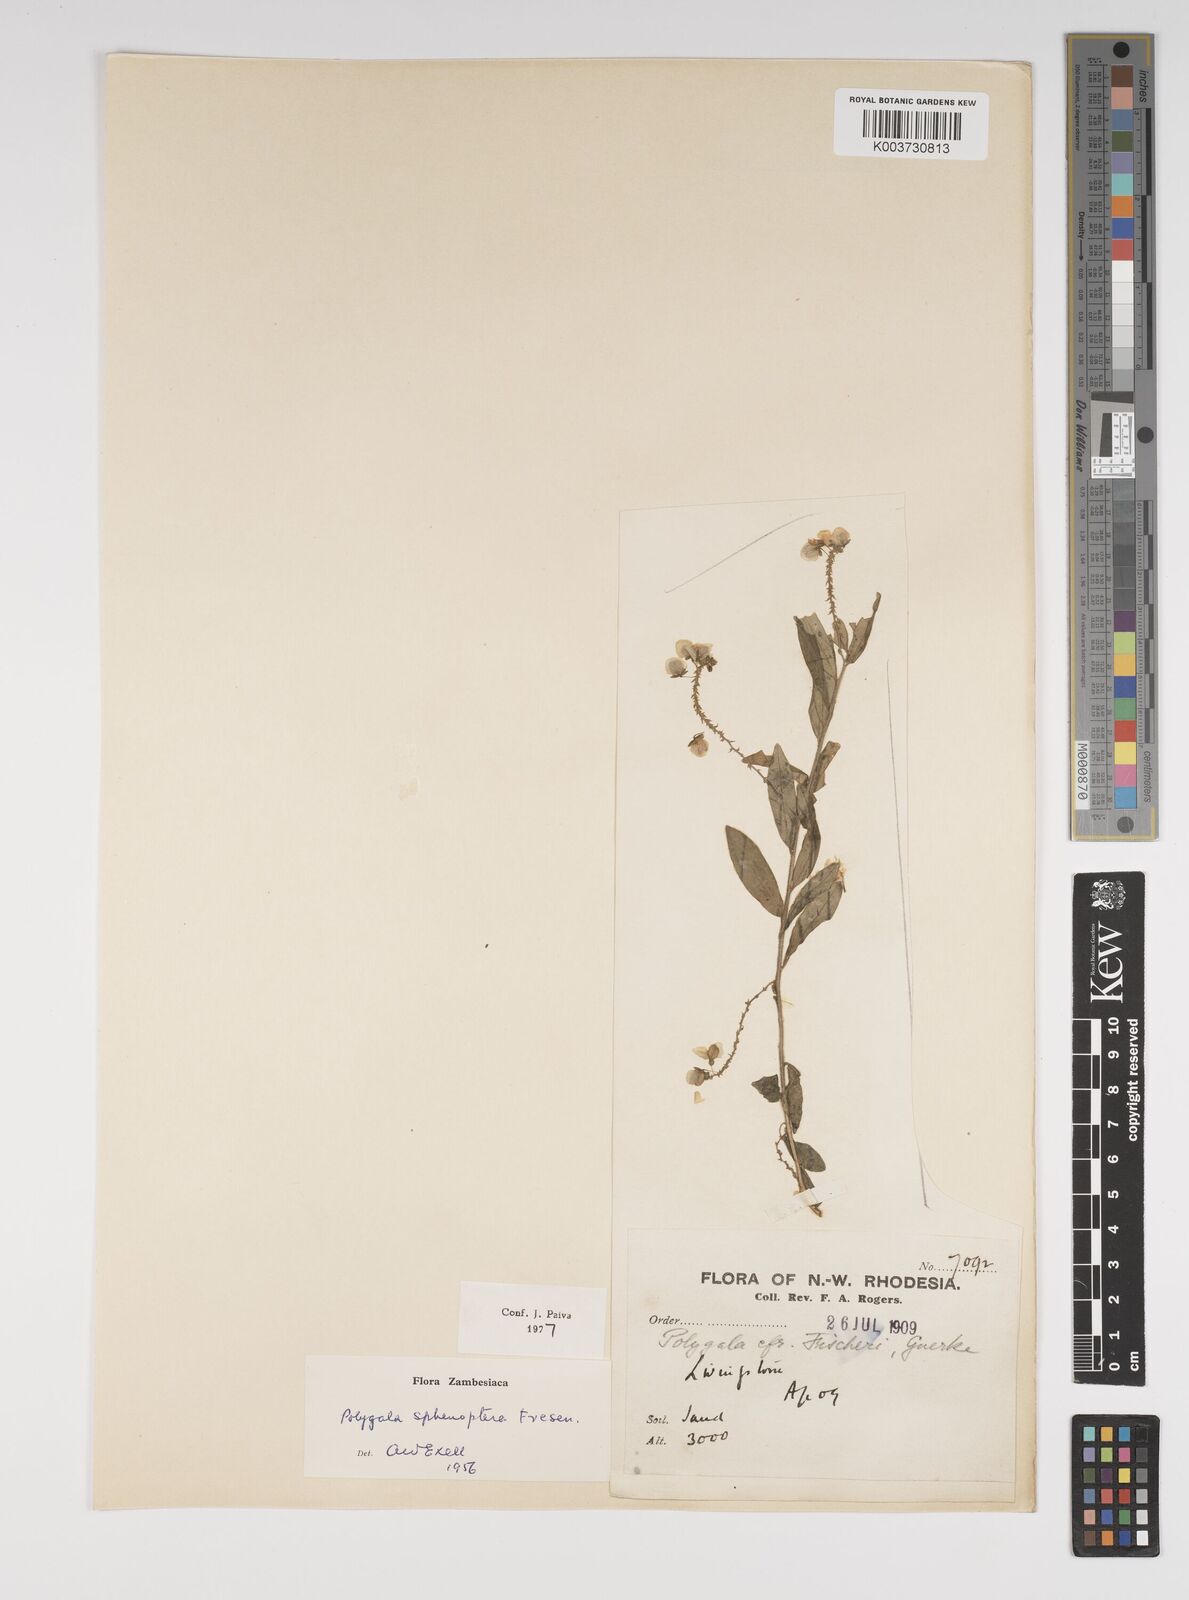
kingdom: Plantae
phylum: Tracheophyta
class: Magnoliopsida
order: Fabales
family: Polygalaceae
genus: Polygala
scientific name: Polygala sphenoptera
